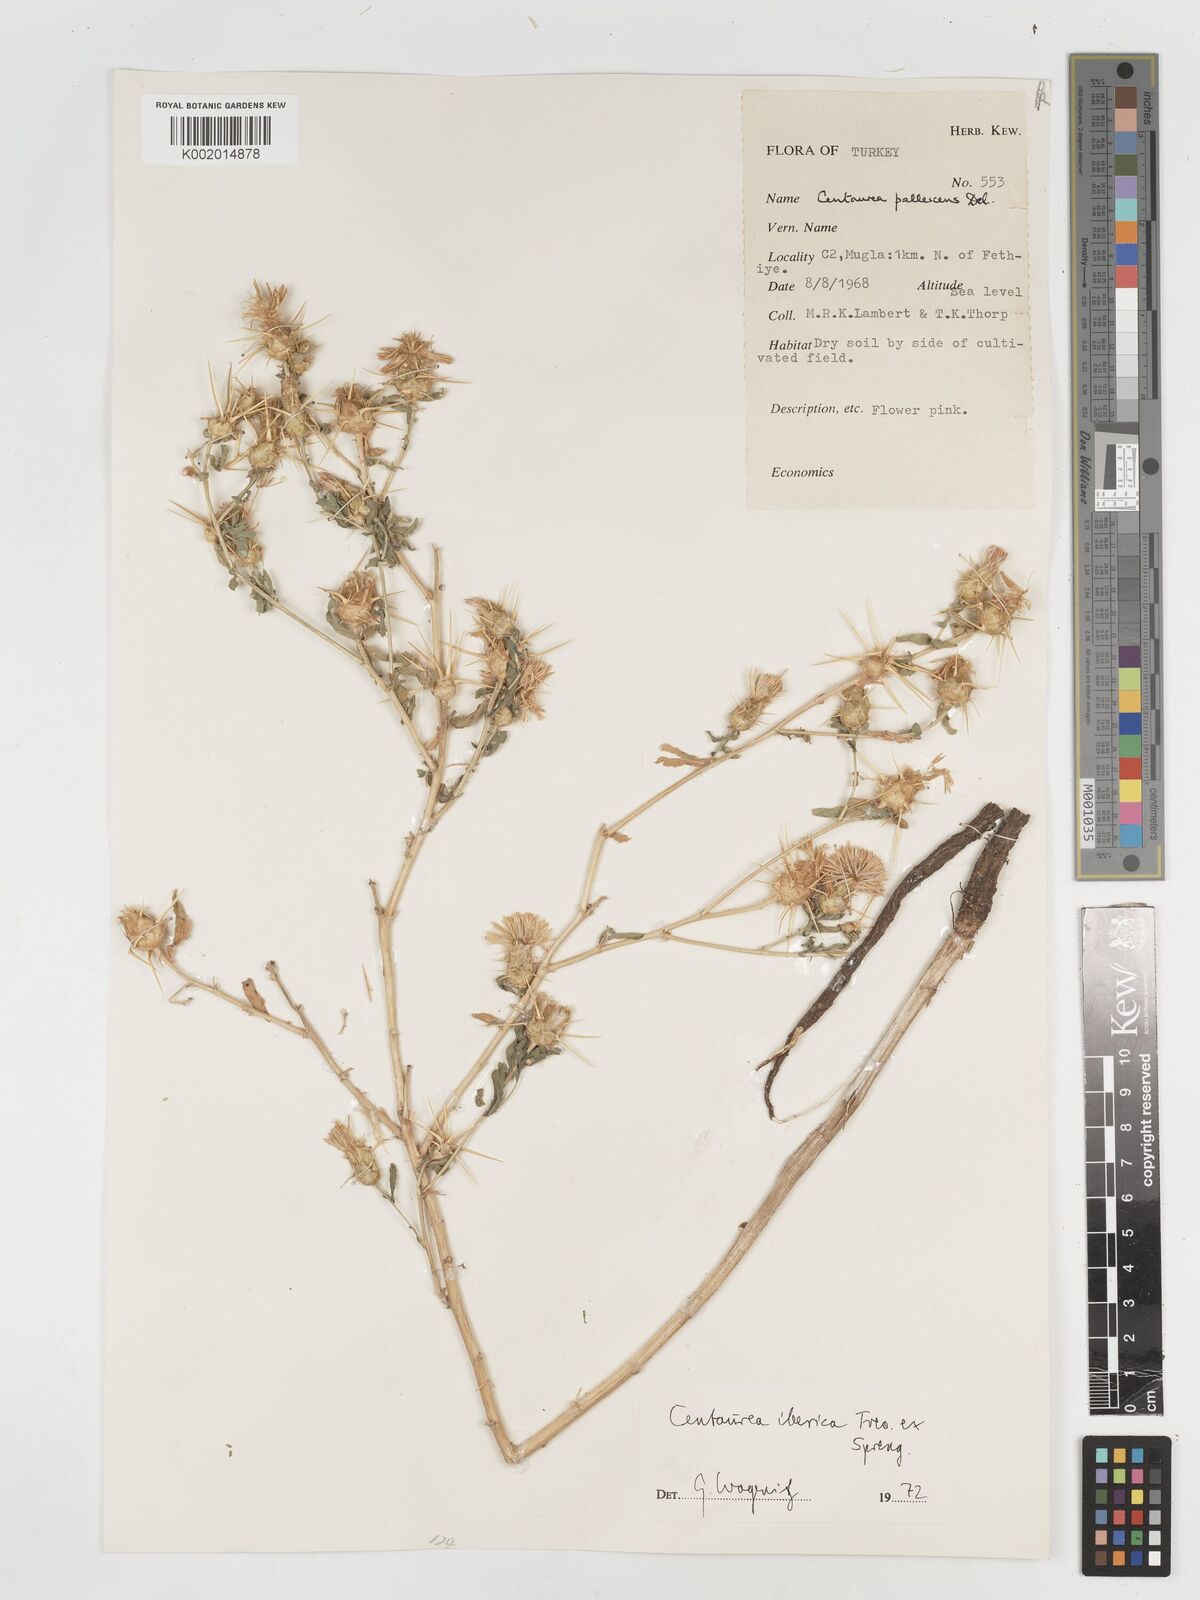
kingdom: Plantae
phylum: Tracheophyta
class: Magnoliopsida
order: Asterales
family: Asteraceae
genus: Centaurea
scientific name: Centaurea iberica
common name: Iberian knapweed
